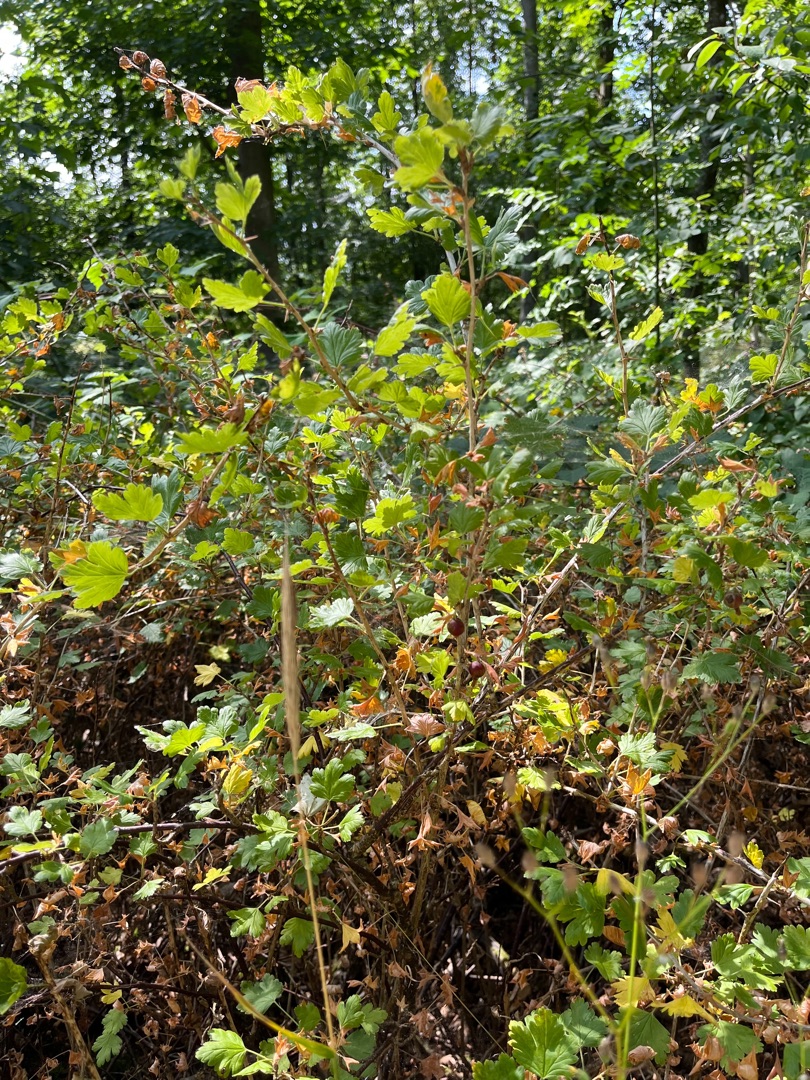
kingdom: Plantae
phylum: Tracheophyta
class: Magnoliopsida
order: Saxifragales
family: Grossulariaceae
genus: Ribes
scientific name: Ribes uva-crispa
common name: Stikkelsbær
